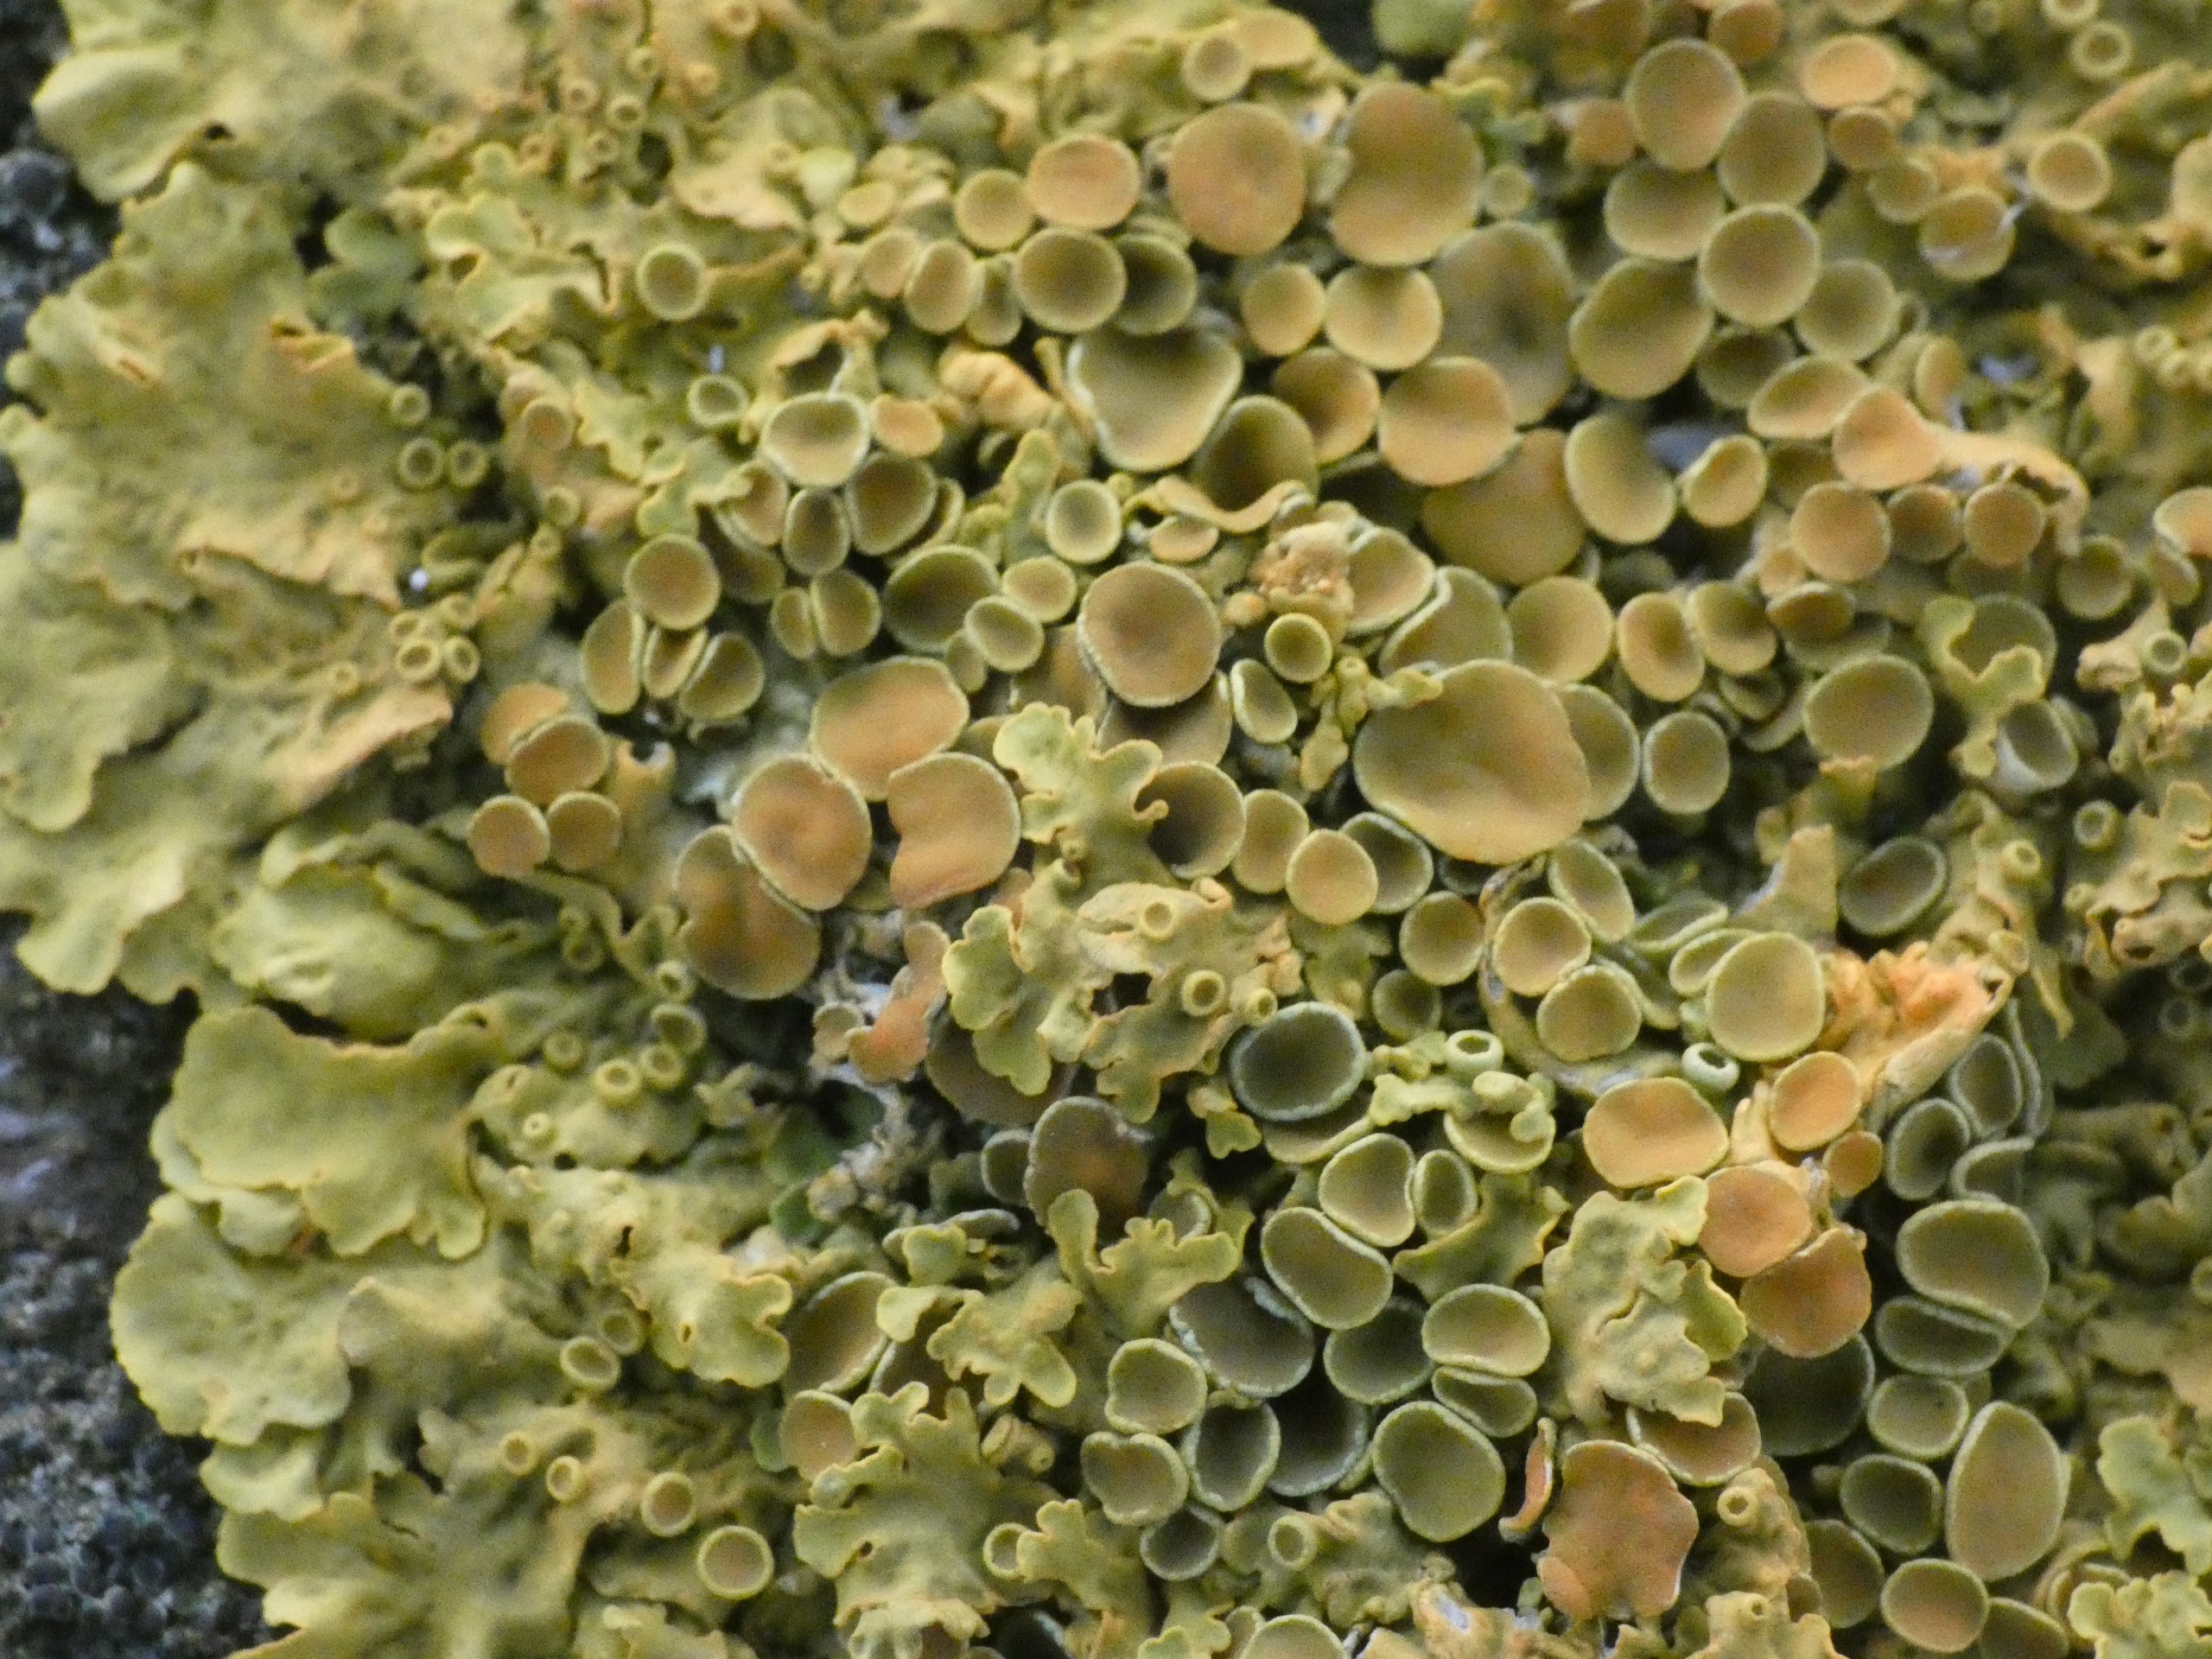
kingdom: Fungi
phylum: Ascomycota
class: Lecanoromycetes
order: Teloschistales
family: Teloschistaceae
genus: Xanthoria
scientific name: Xanthoria parietina
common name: Almindelig væggelav
